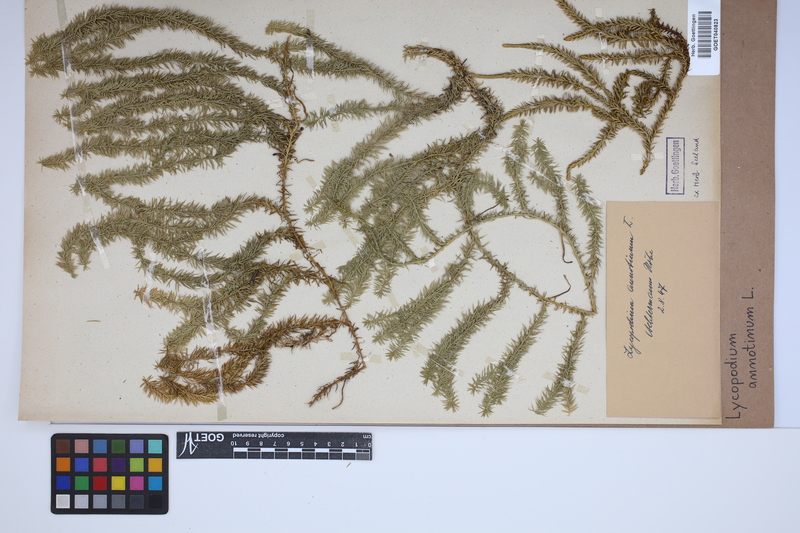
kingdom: Plantae
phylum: Tracheophyta
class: Lycopodiopsida
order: Lycopodiales
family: Lycopodiaceae
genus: Spinulum
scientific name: Spinulum annotinum
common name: Interrupted club-moss
